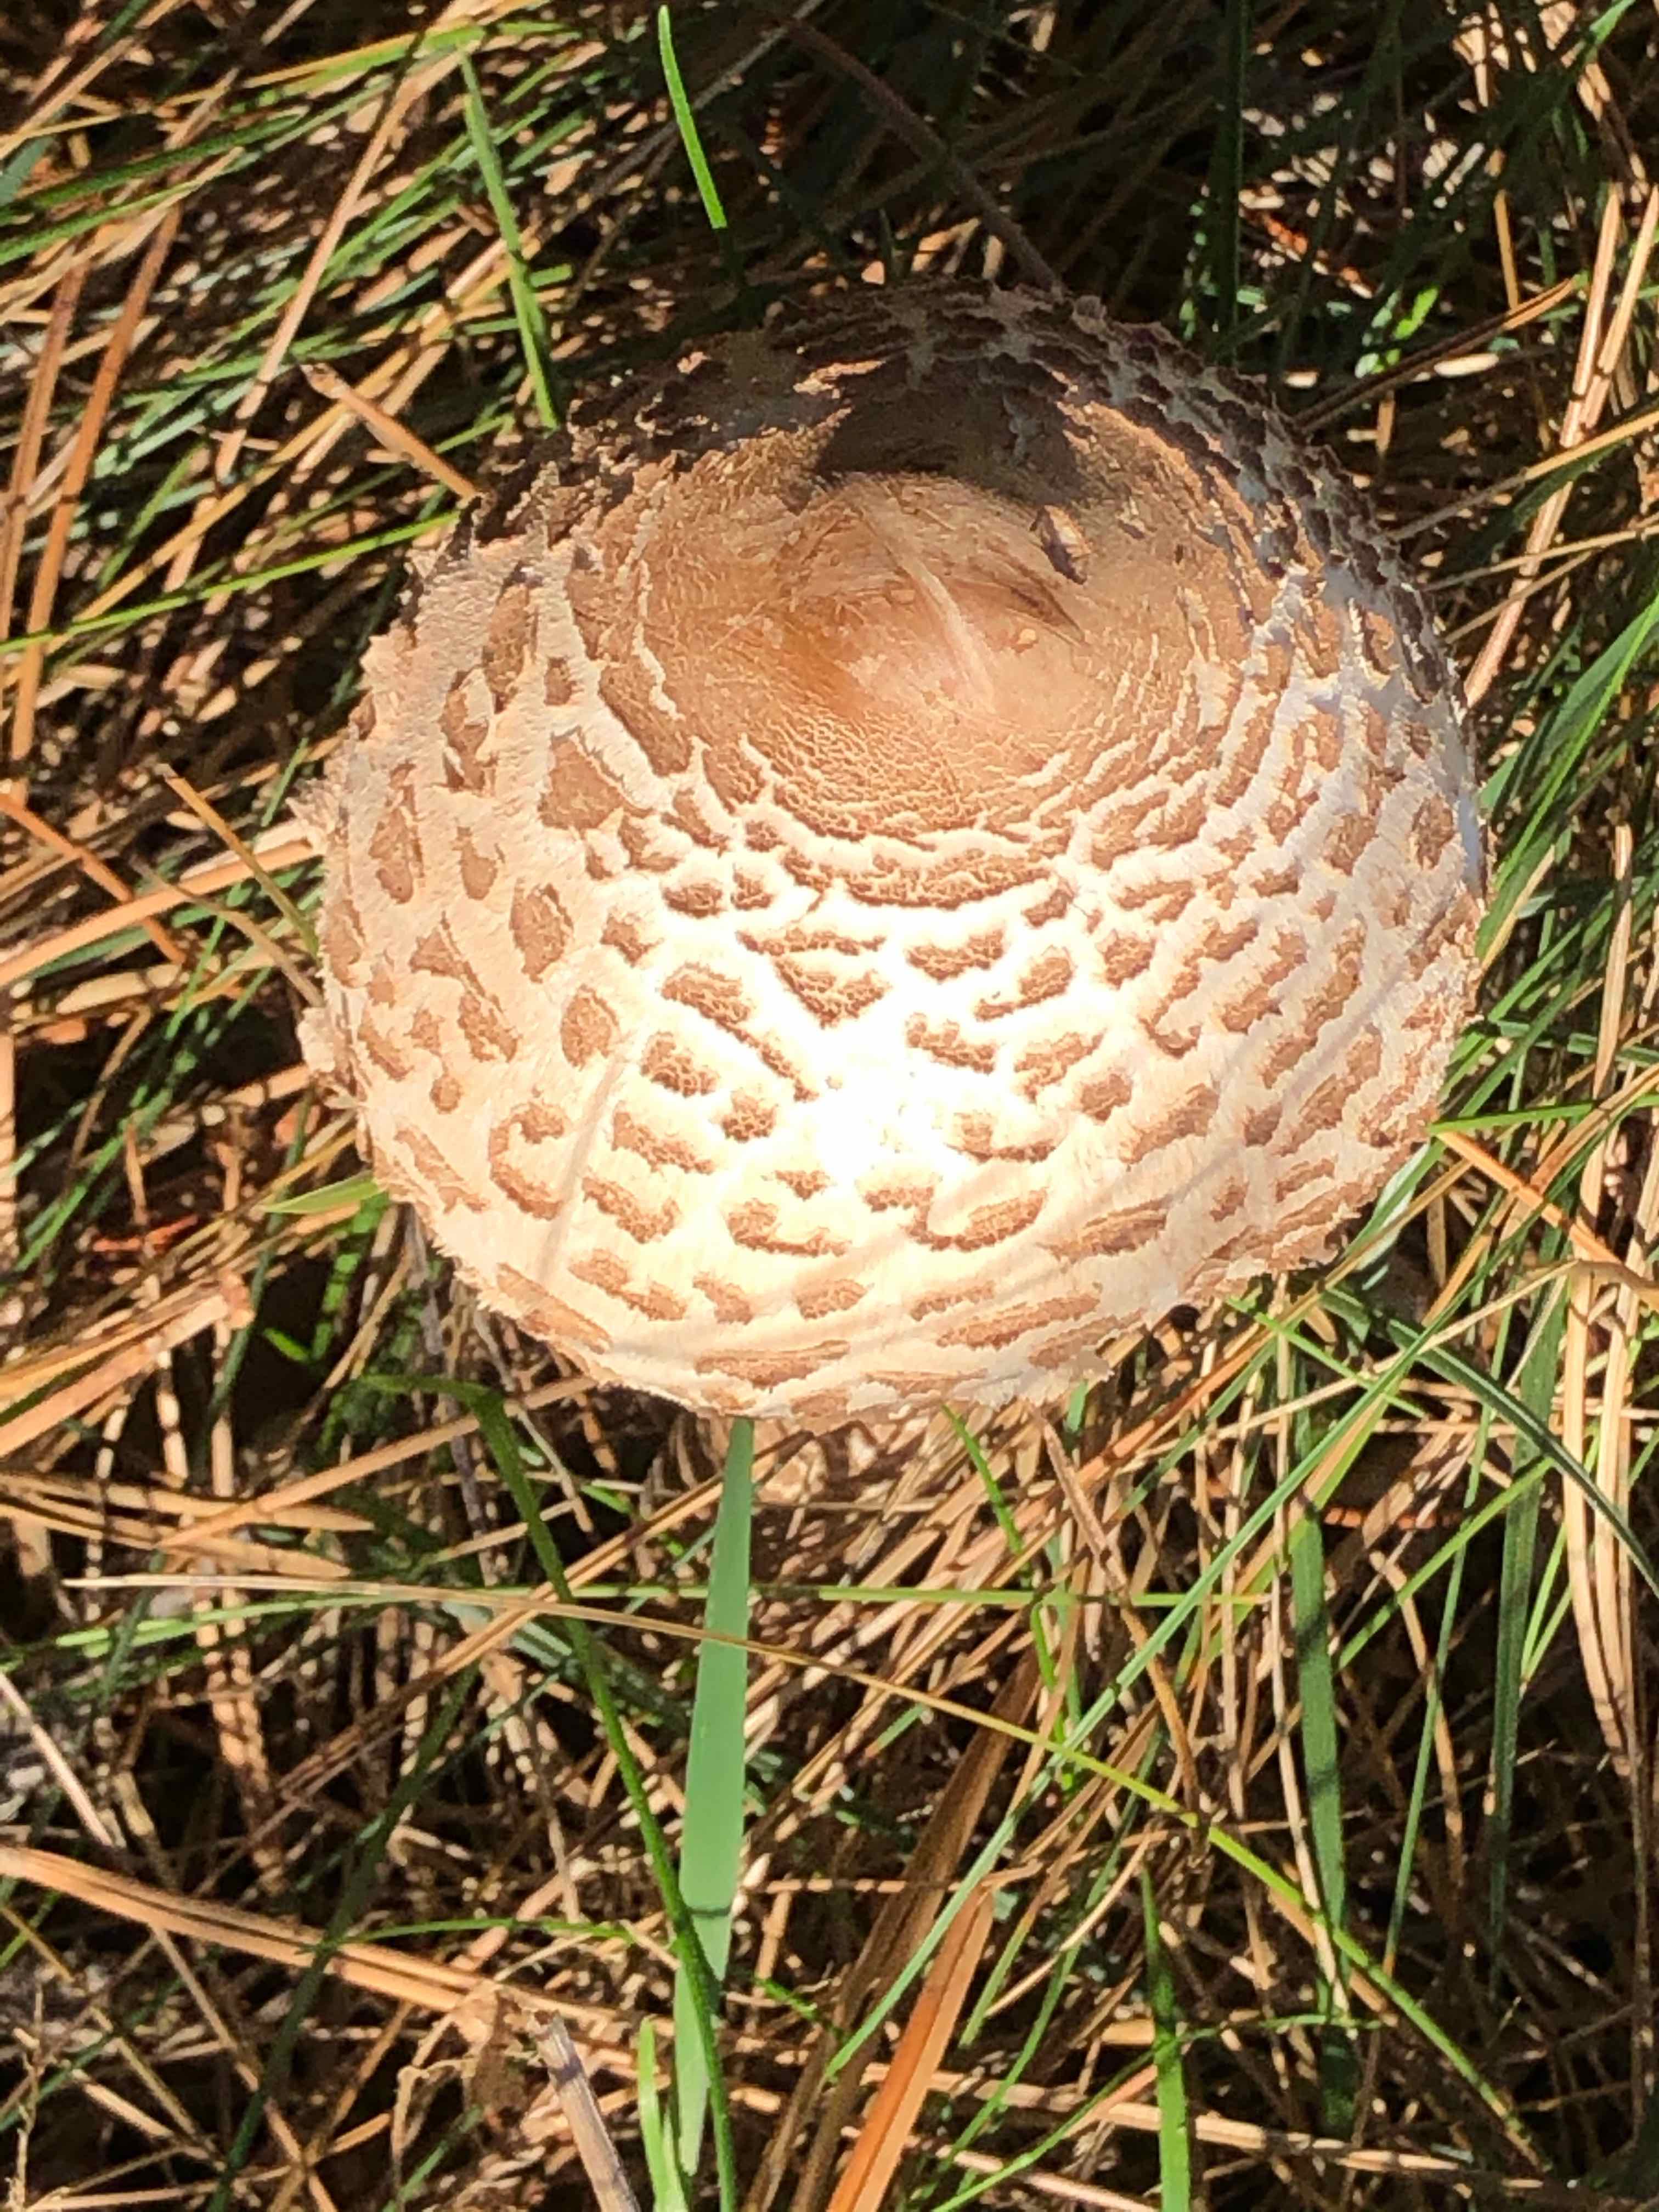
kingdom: Fungi
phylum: Basidiomycota
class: Agaricomycetes
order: Agaricales
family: Agaricaceae
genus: Macrolepiota
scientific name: Macrolepiota procera
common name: stor kæmpeparasolhat
